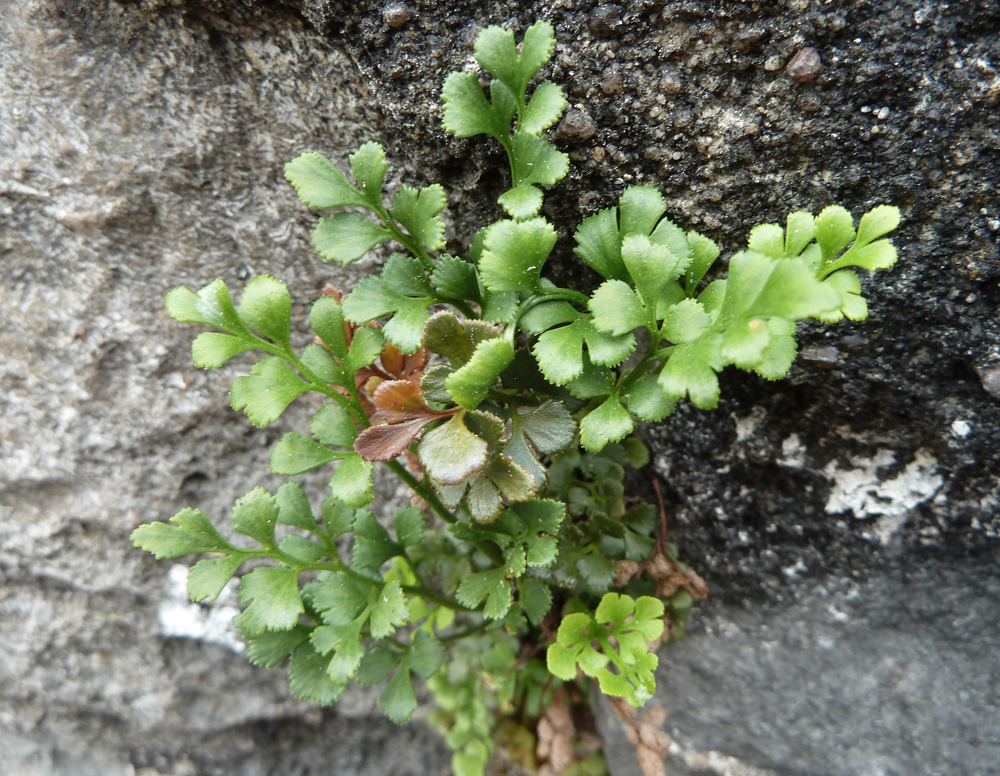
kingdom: Plantae
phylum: Tracheophyta
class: Polypodiopsida
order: Polypodiales
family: Aspleniaceae
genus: Asplenium
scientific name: Asplenium ruta-muraria
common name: Wall-rue
